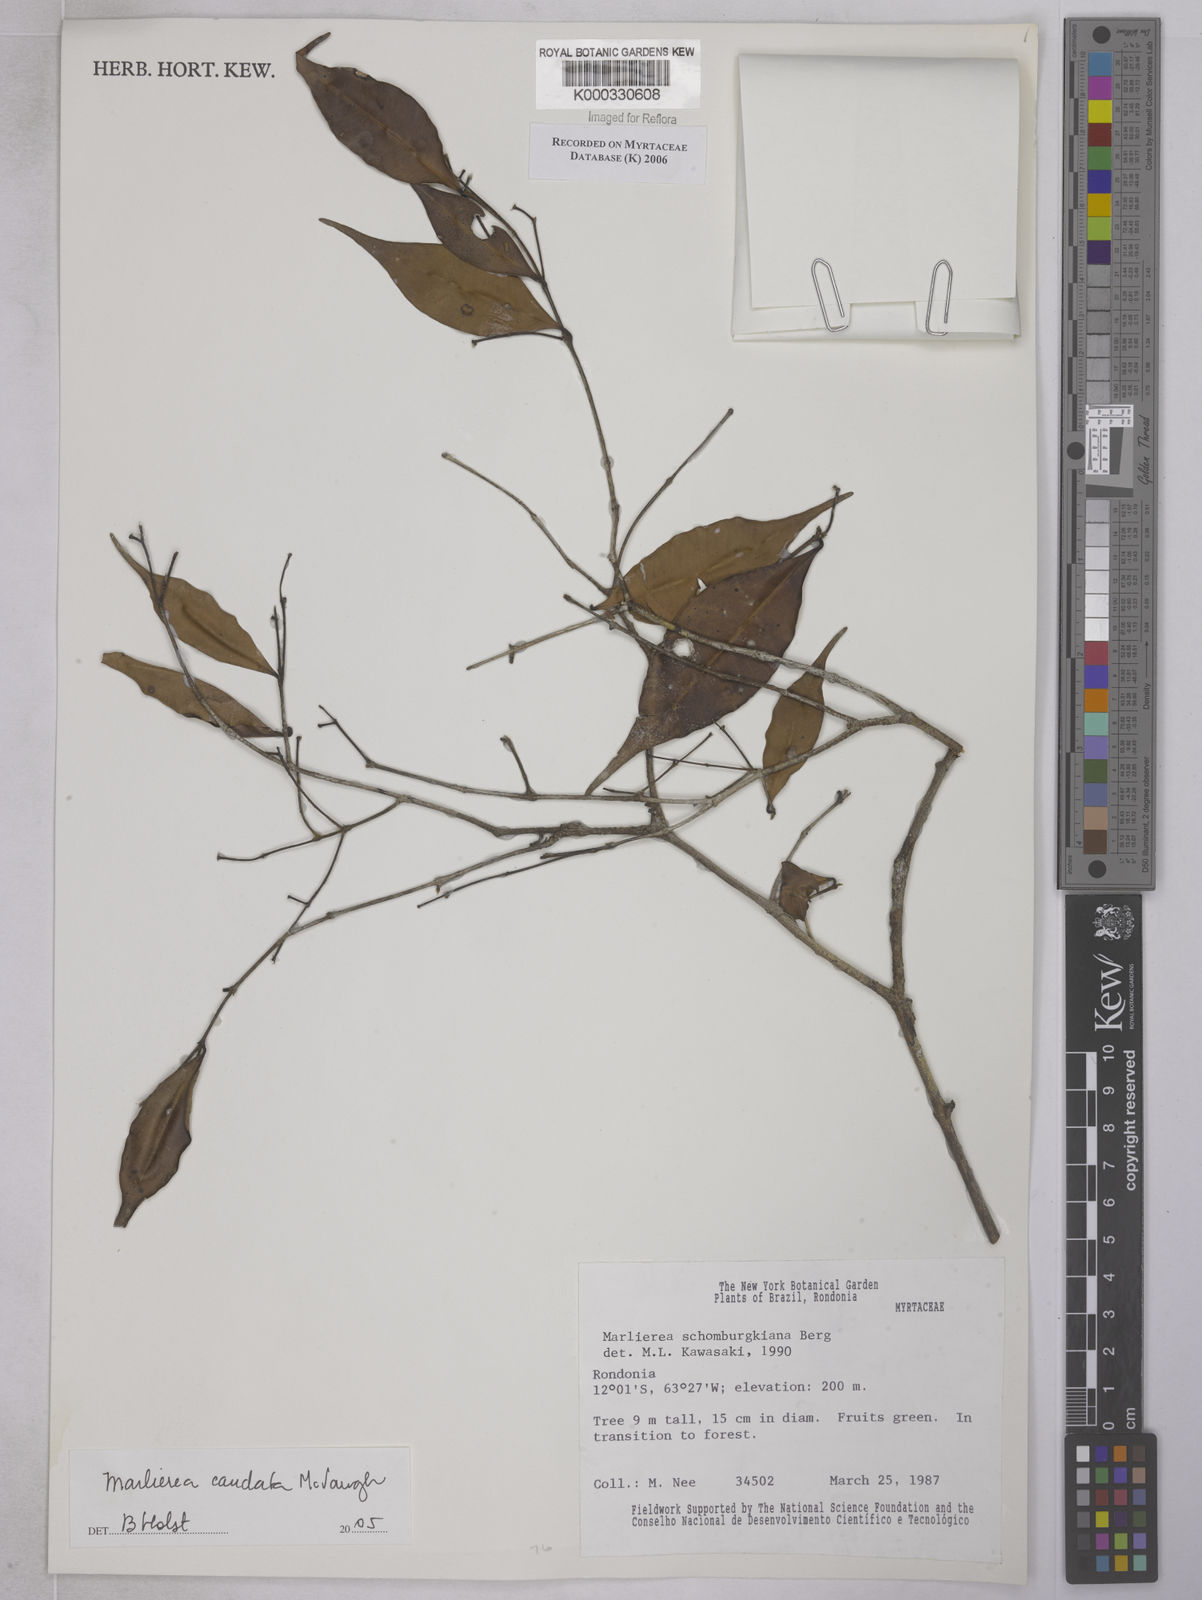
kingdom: Plantae
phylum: Tracheophyta
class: Magnoliopsida
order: Myrtales
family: Myrtaceae
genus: Myrcia
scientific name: Myrcia caudata
